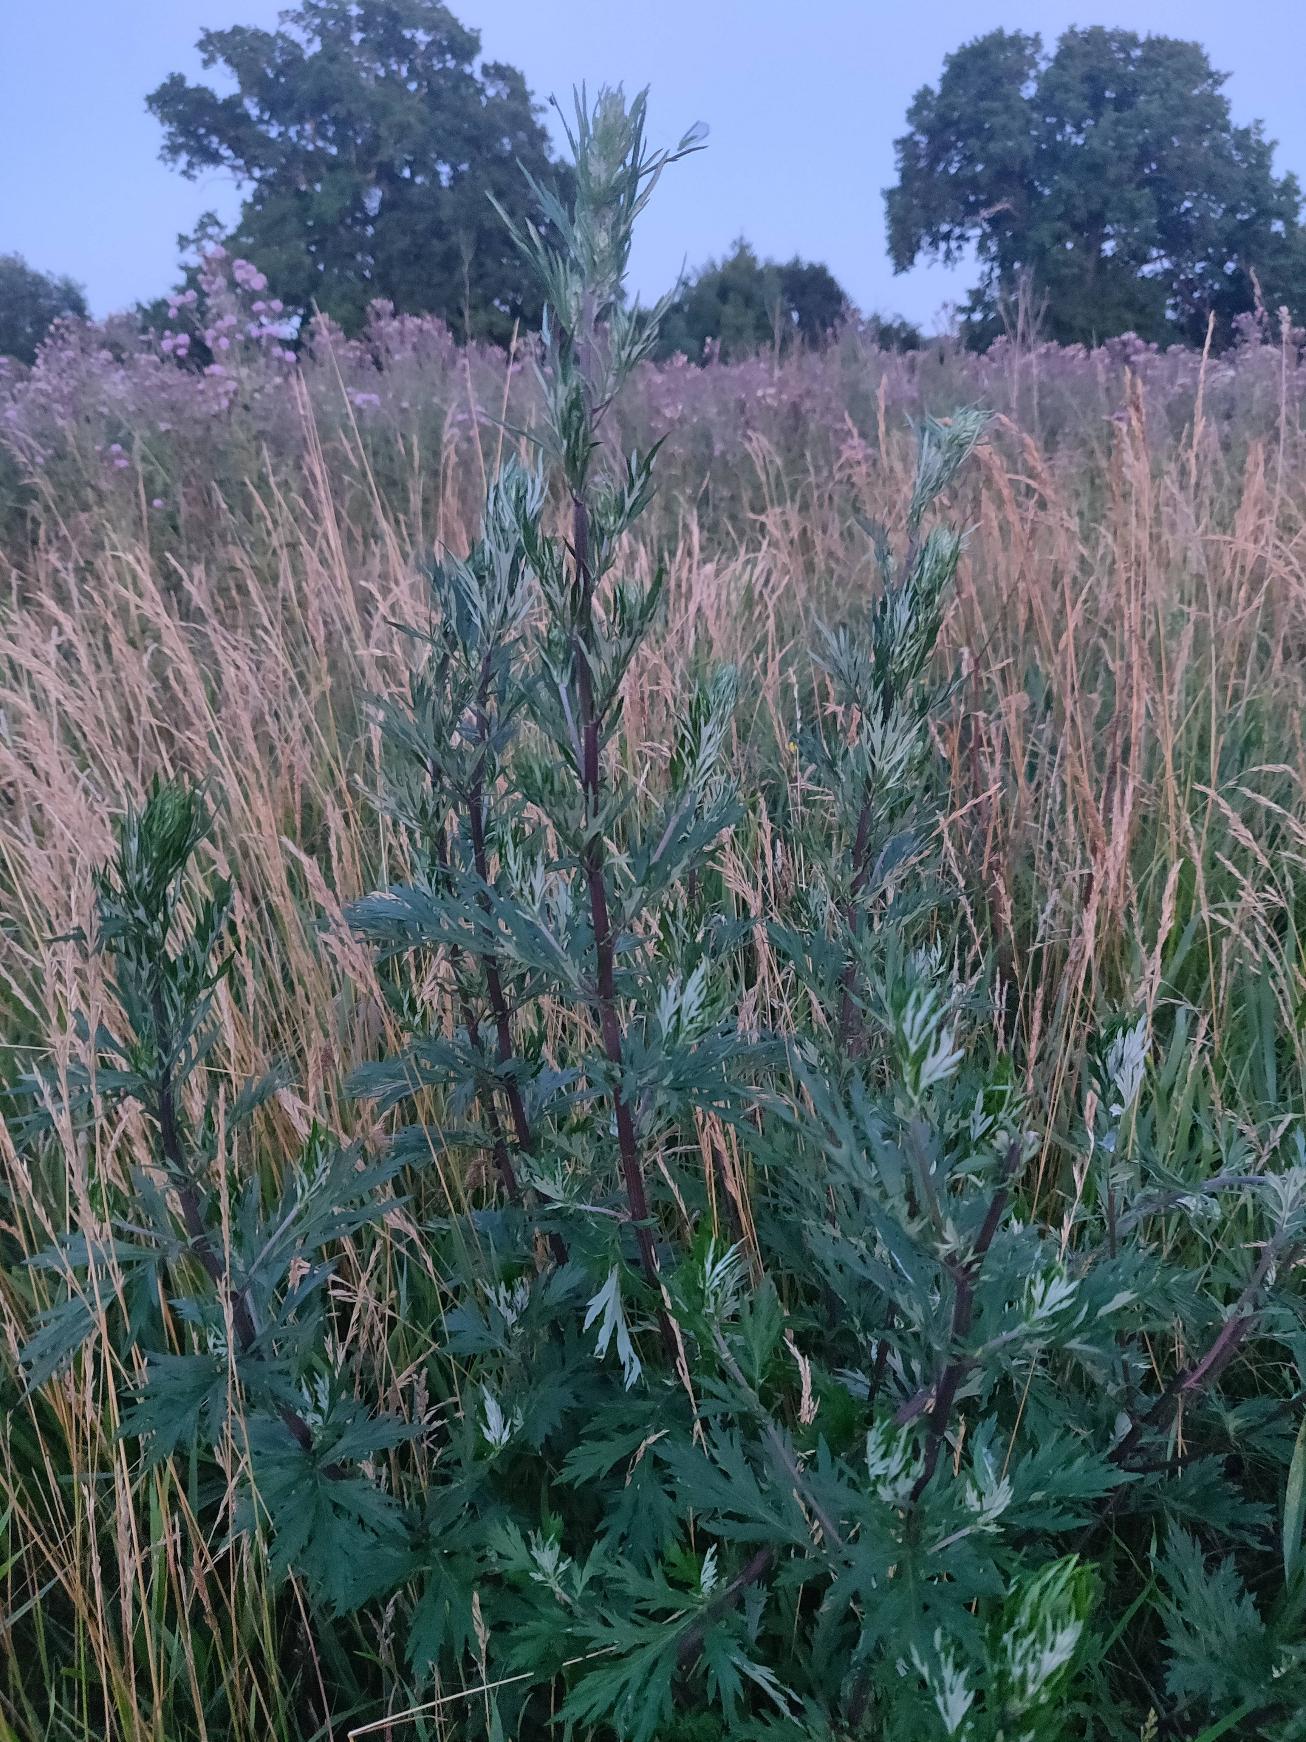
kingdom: Plantae
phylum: Tracheophyta
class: Magnoliopsida
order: Asterales
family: Asteraceae
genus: Artemisia
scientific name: Artemisia vulgaris
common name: Grå-bynke
